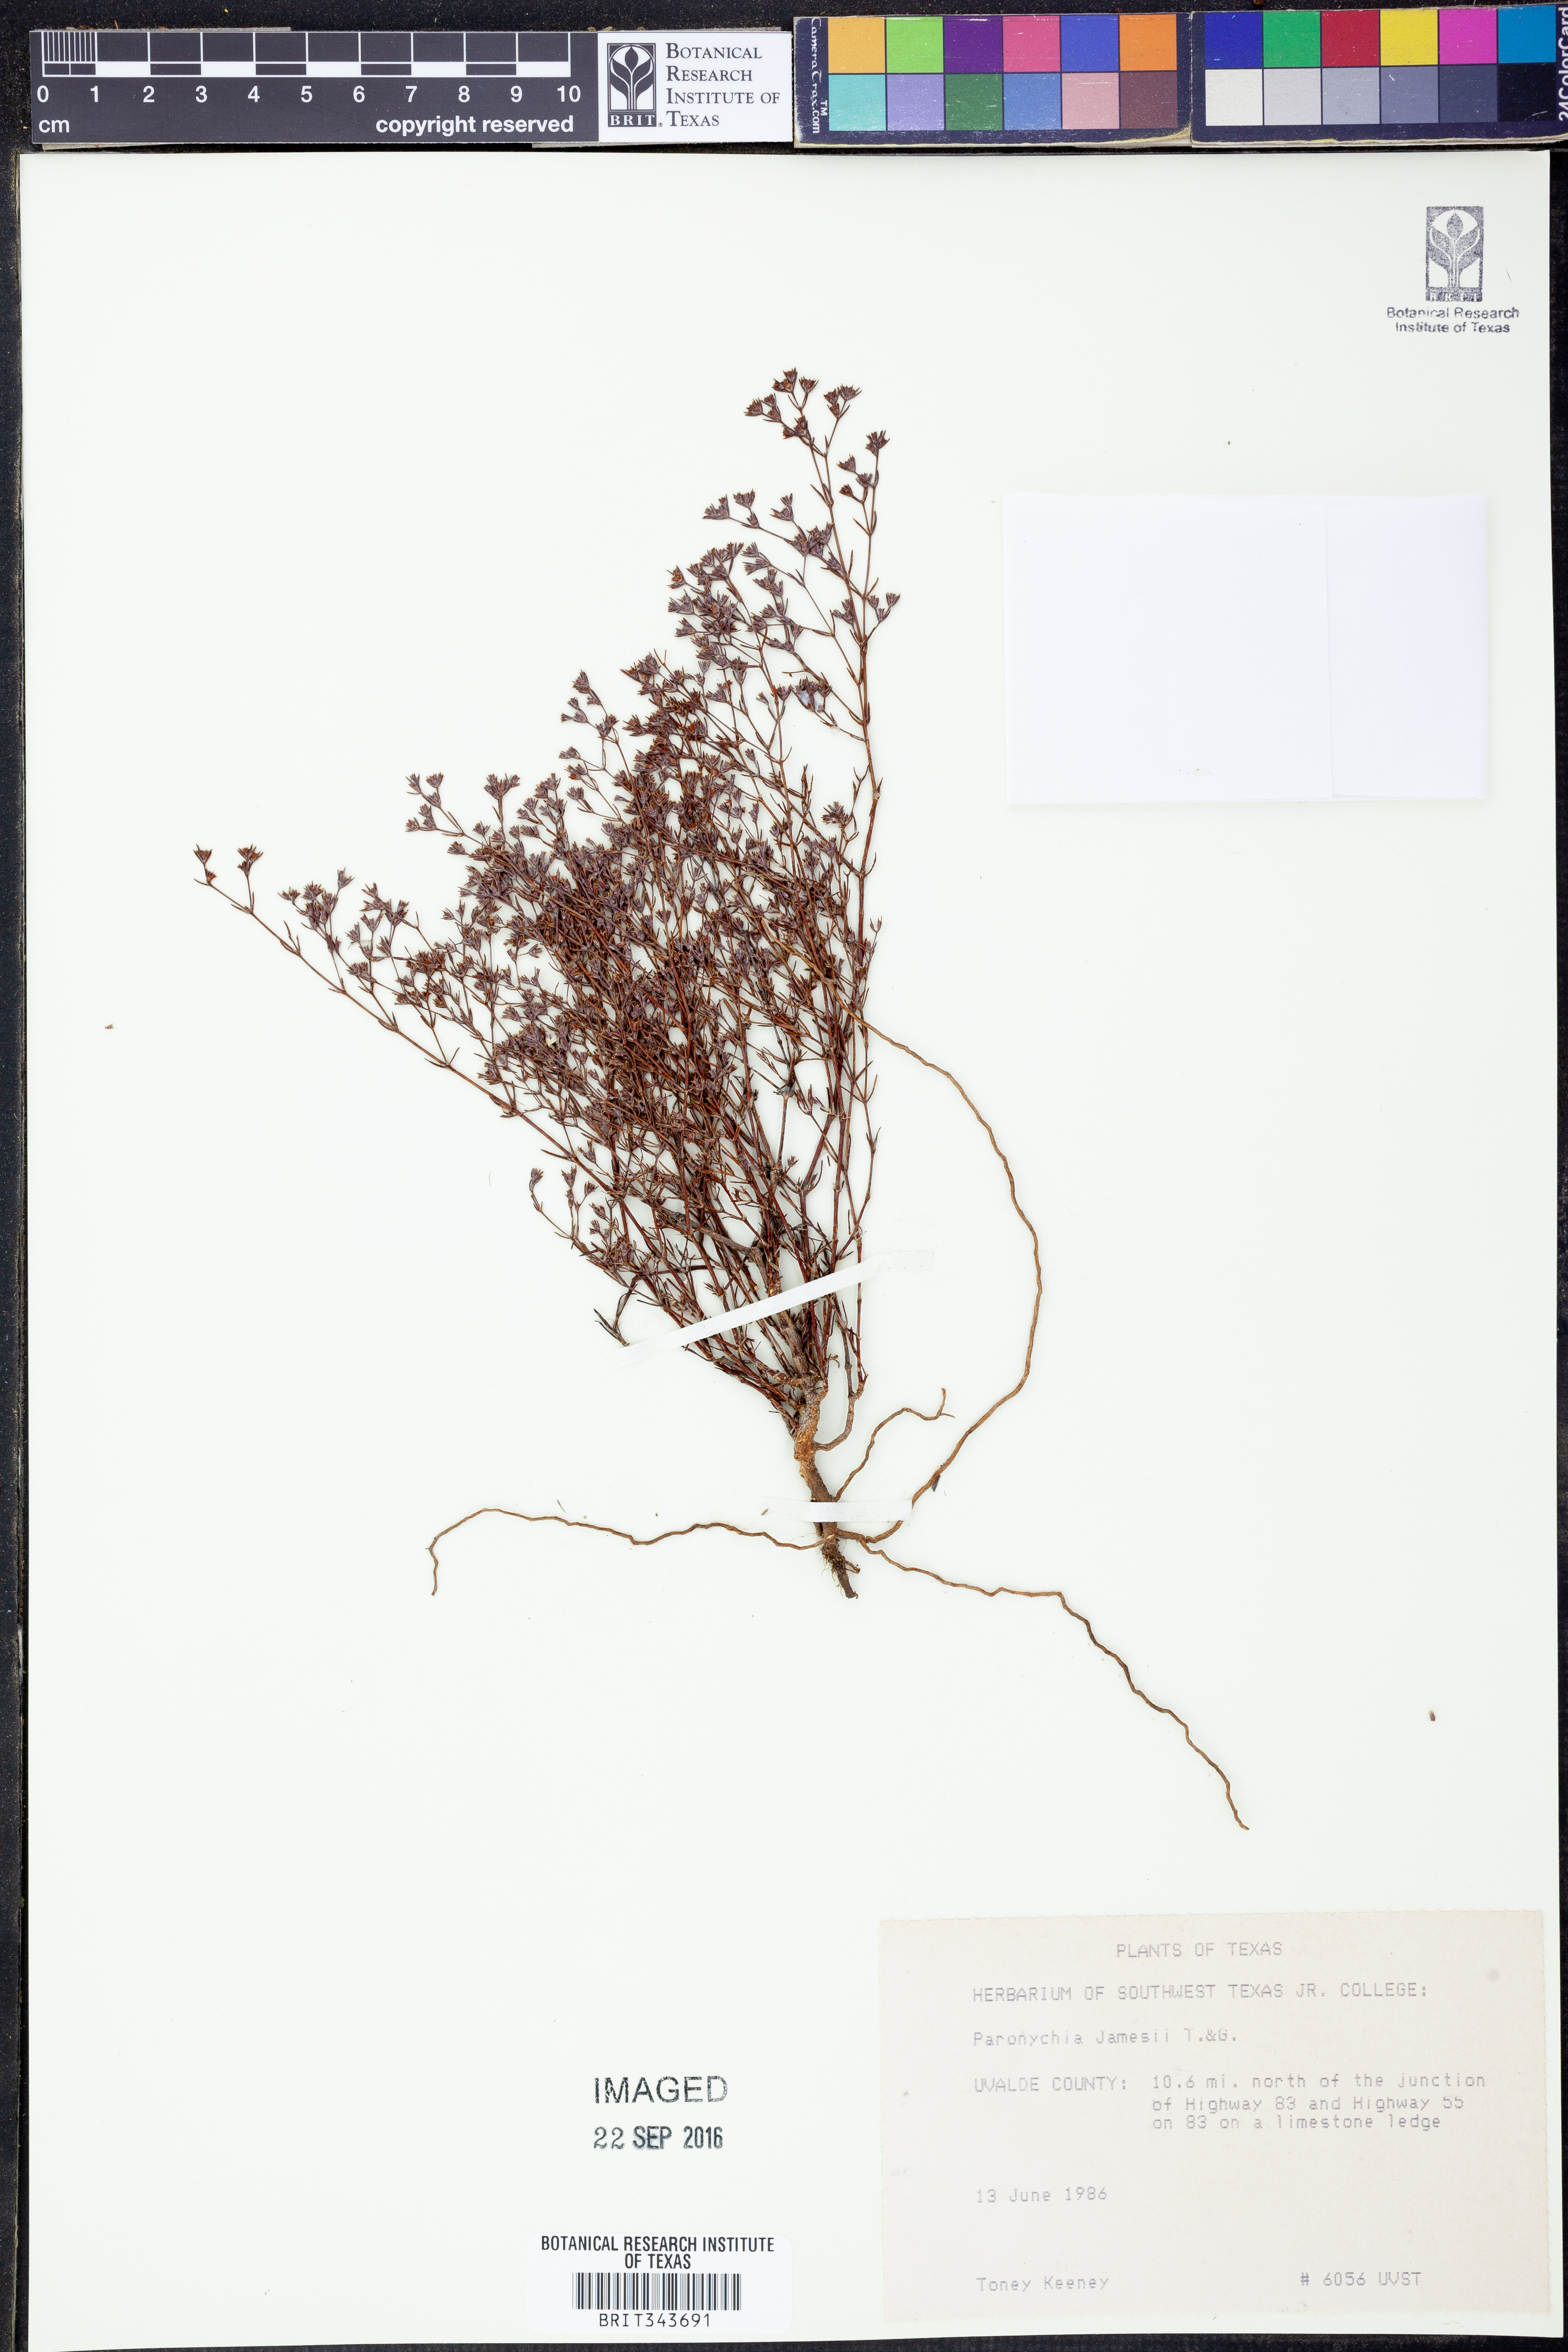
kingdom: Plantae
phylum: Tracheophyta
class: Magnoliopsida
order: Caryophyllales
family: Caryophyllaceae
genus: Paronychia
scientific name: Paronychia jamesii
